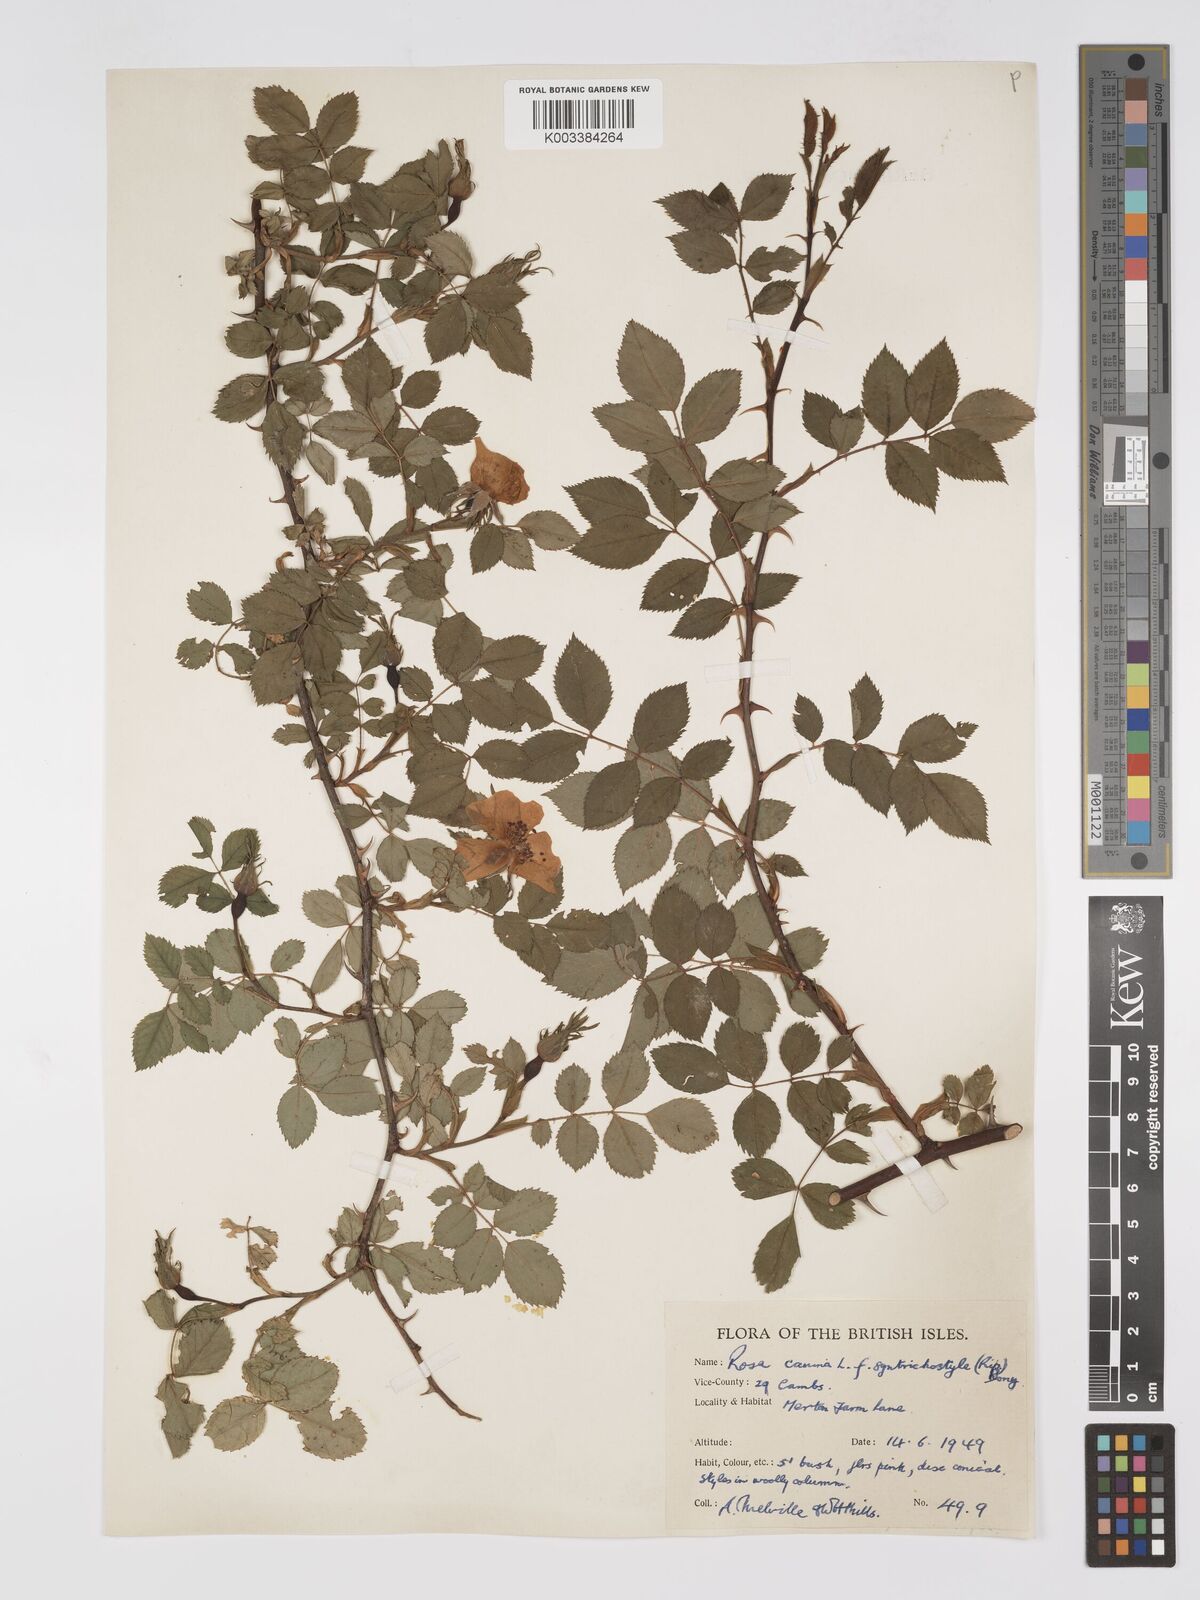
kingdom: Plantae
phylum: Tracheophyta
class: Magnoliopsida
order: Rosales
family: Rosaceae
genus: Rosa
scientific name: Rosa canina
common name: Dog rose
